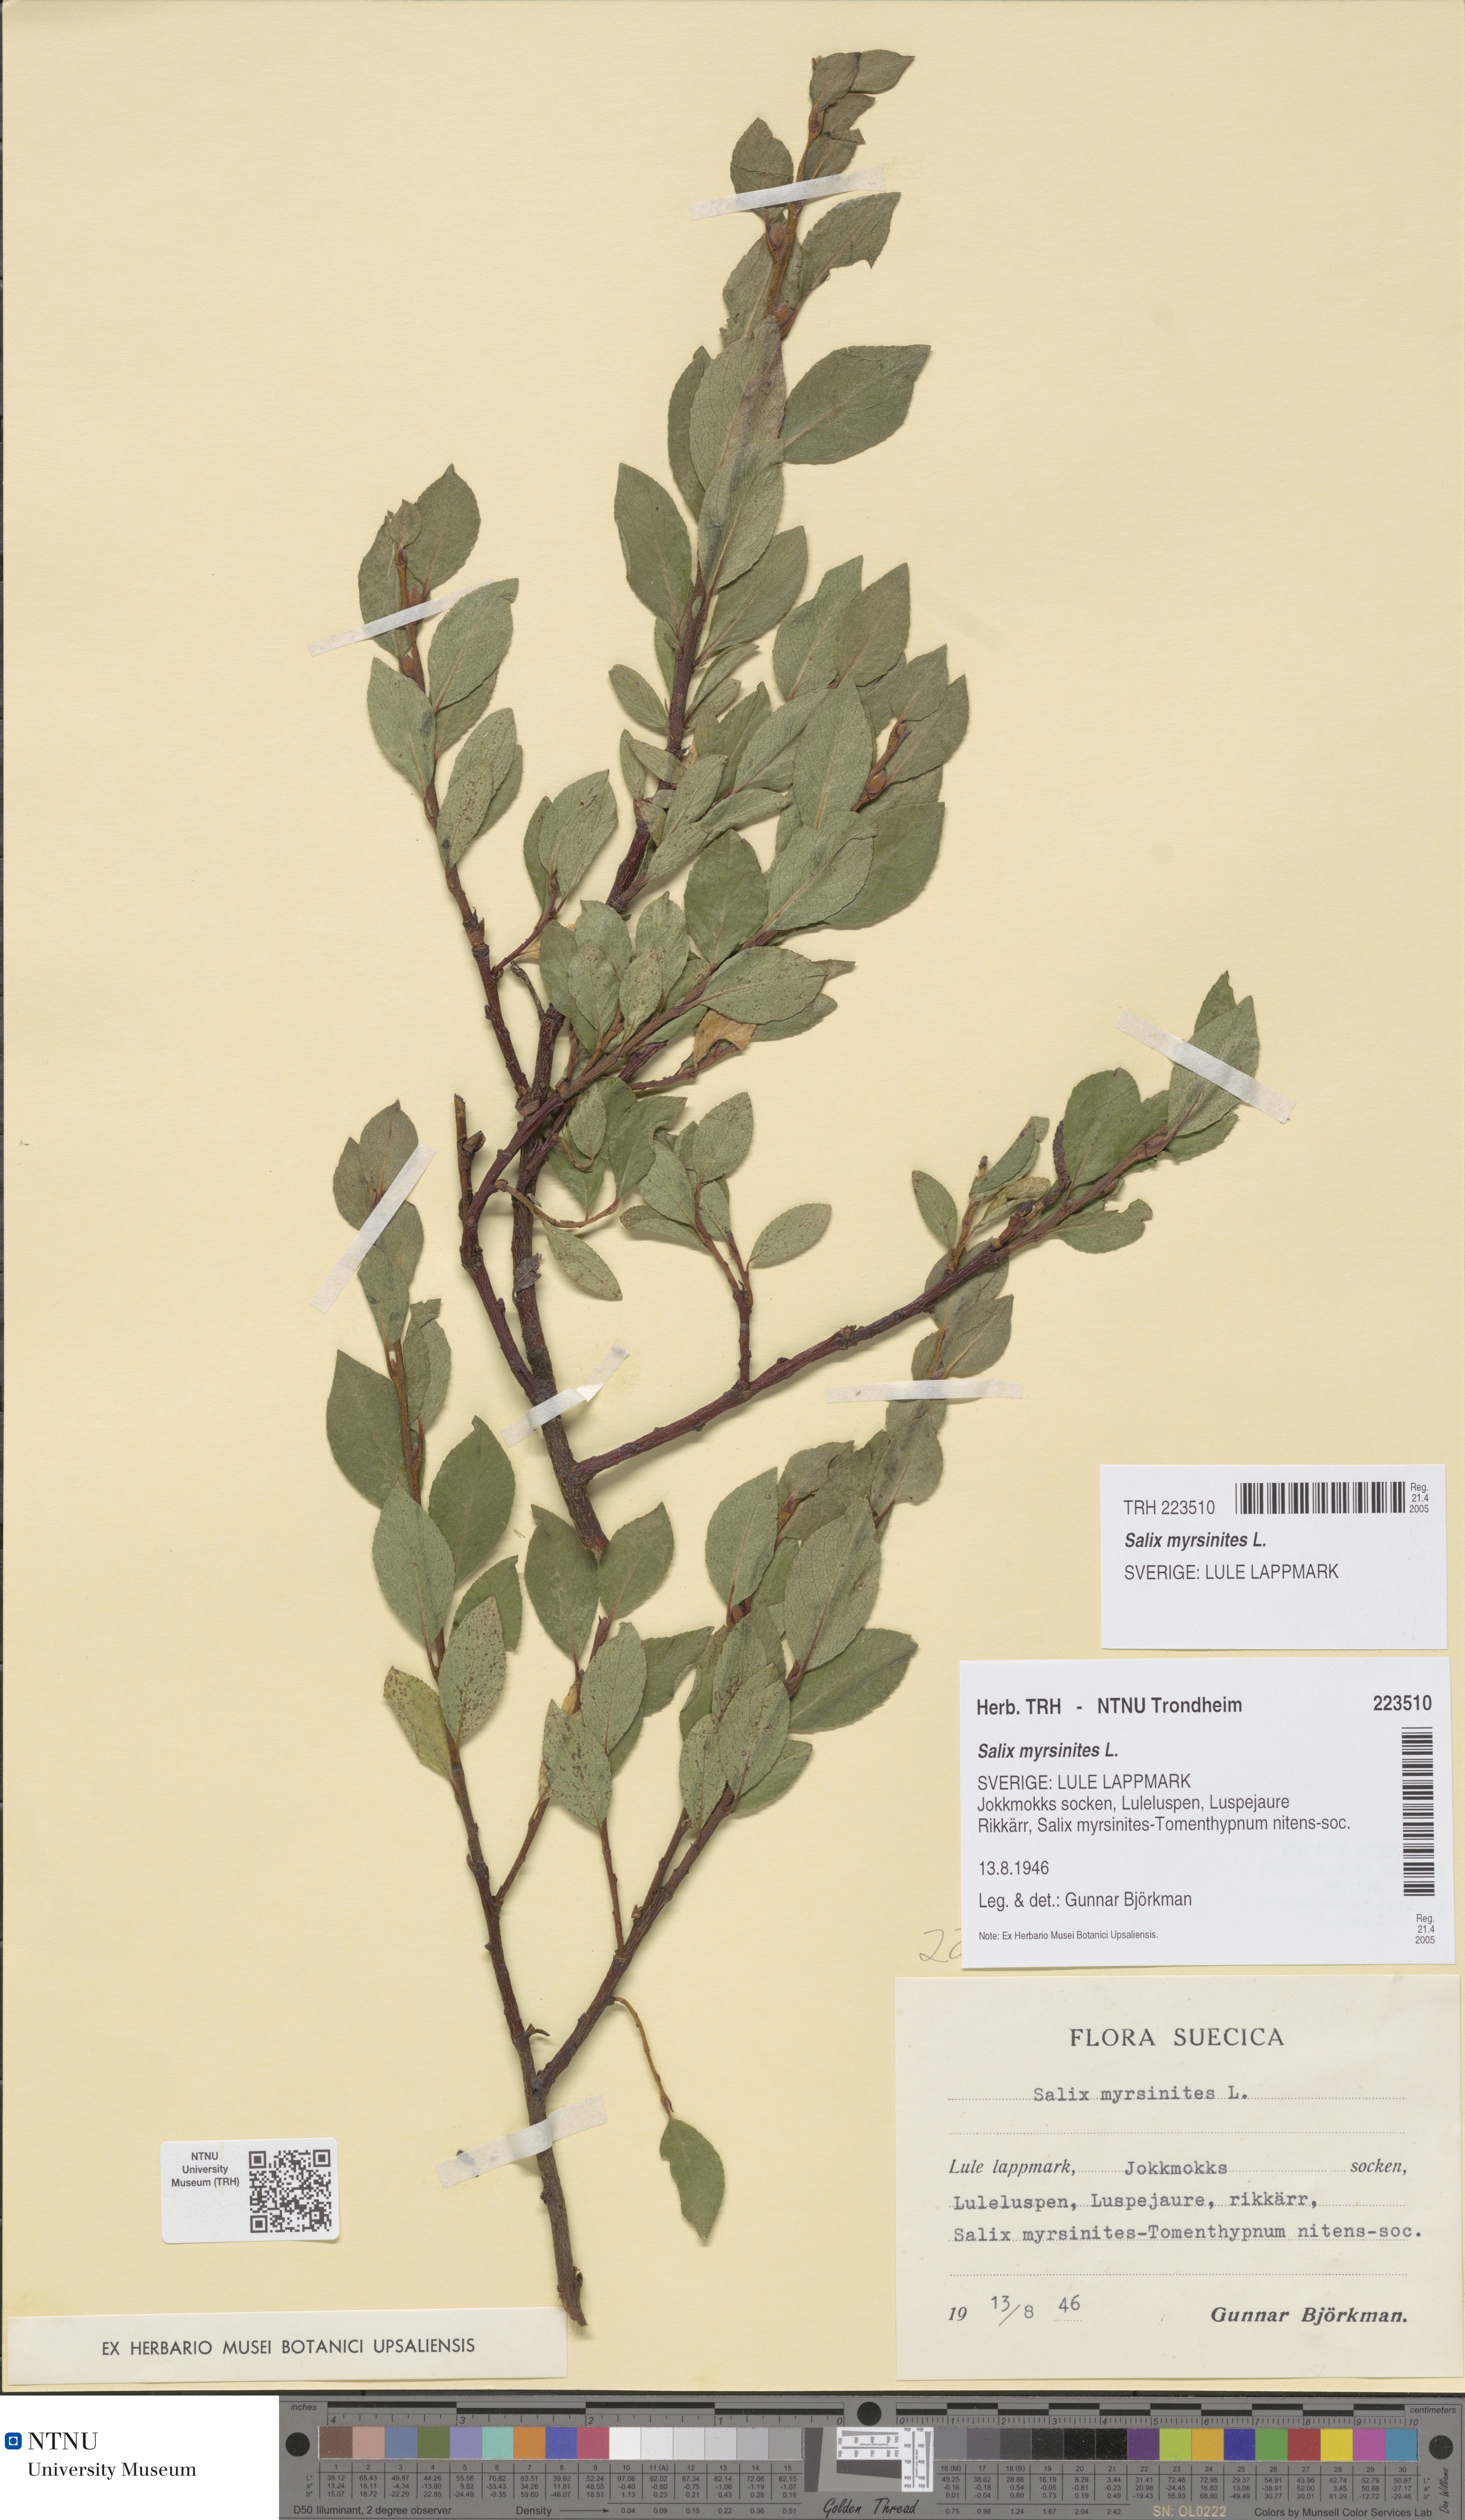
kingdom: Plantae
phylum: Tracheophyta
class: Magnoliopsida
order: Malpighiales
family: Salicaceae
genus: Salix
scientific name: Salix myrsinites
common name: Myrtle willow
